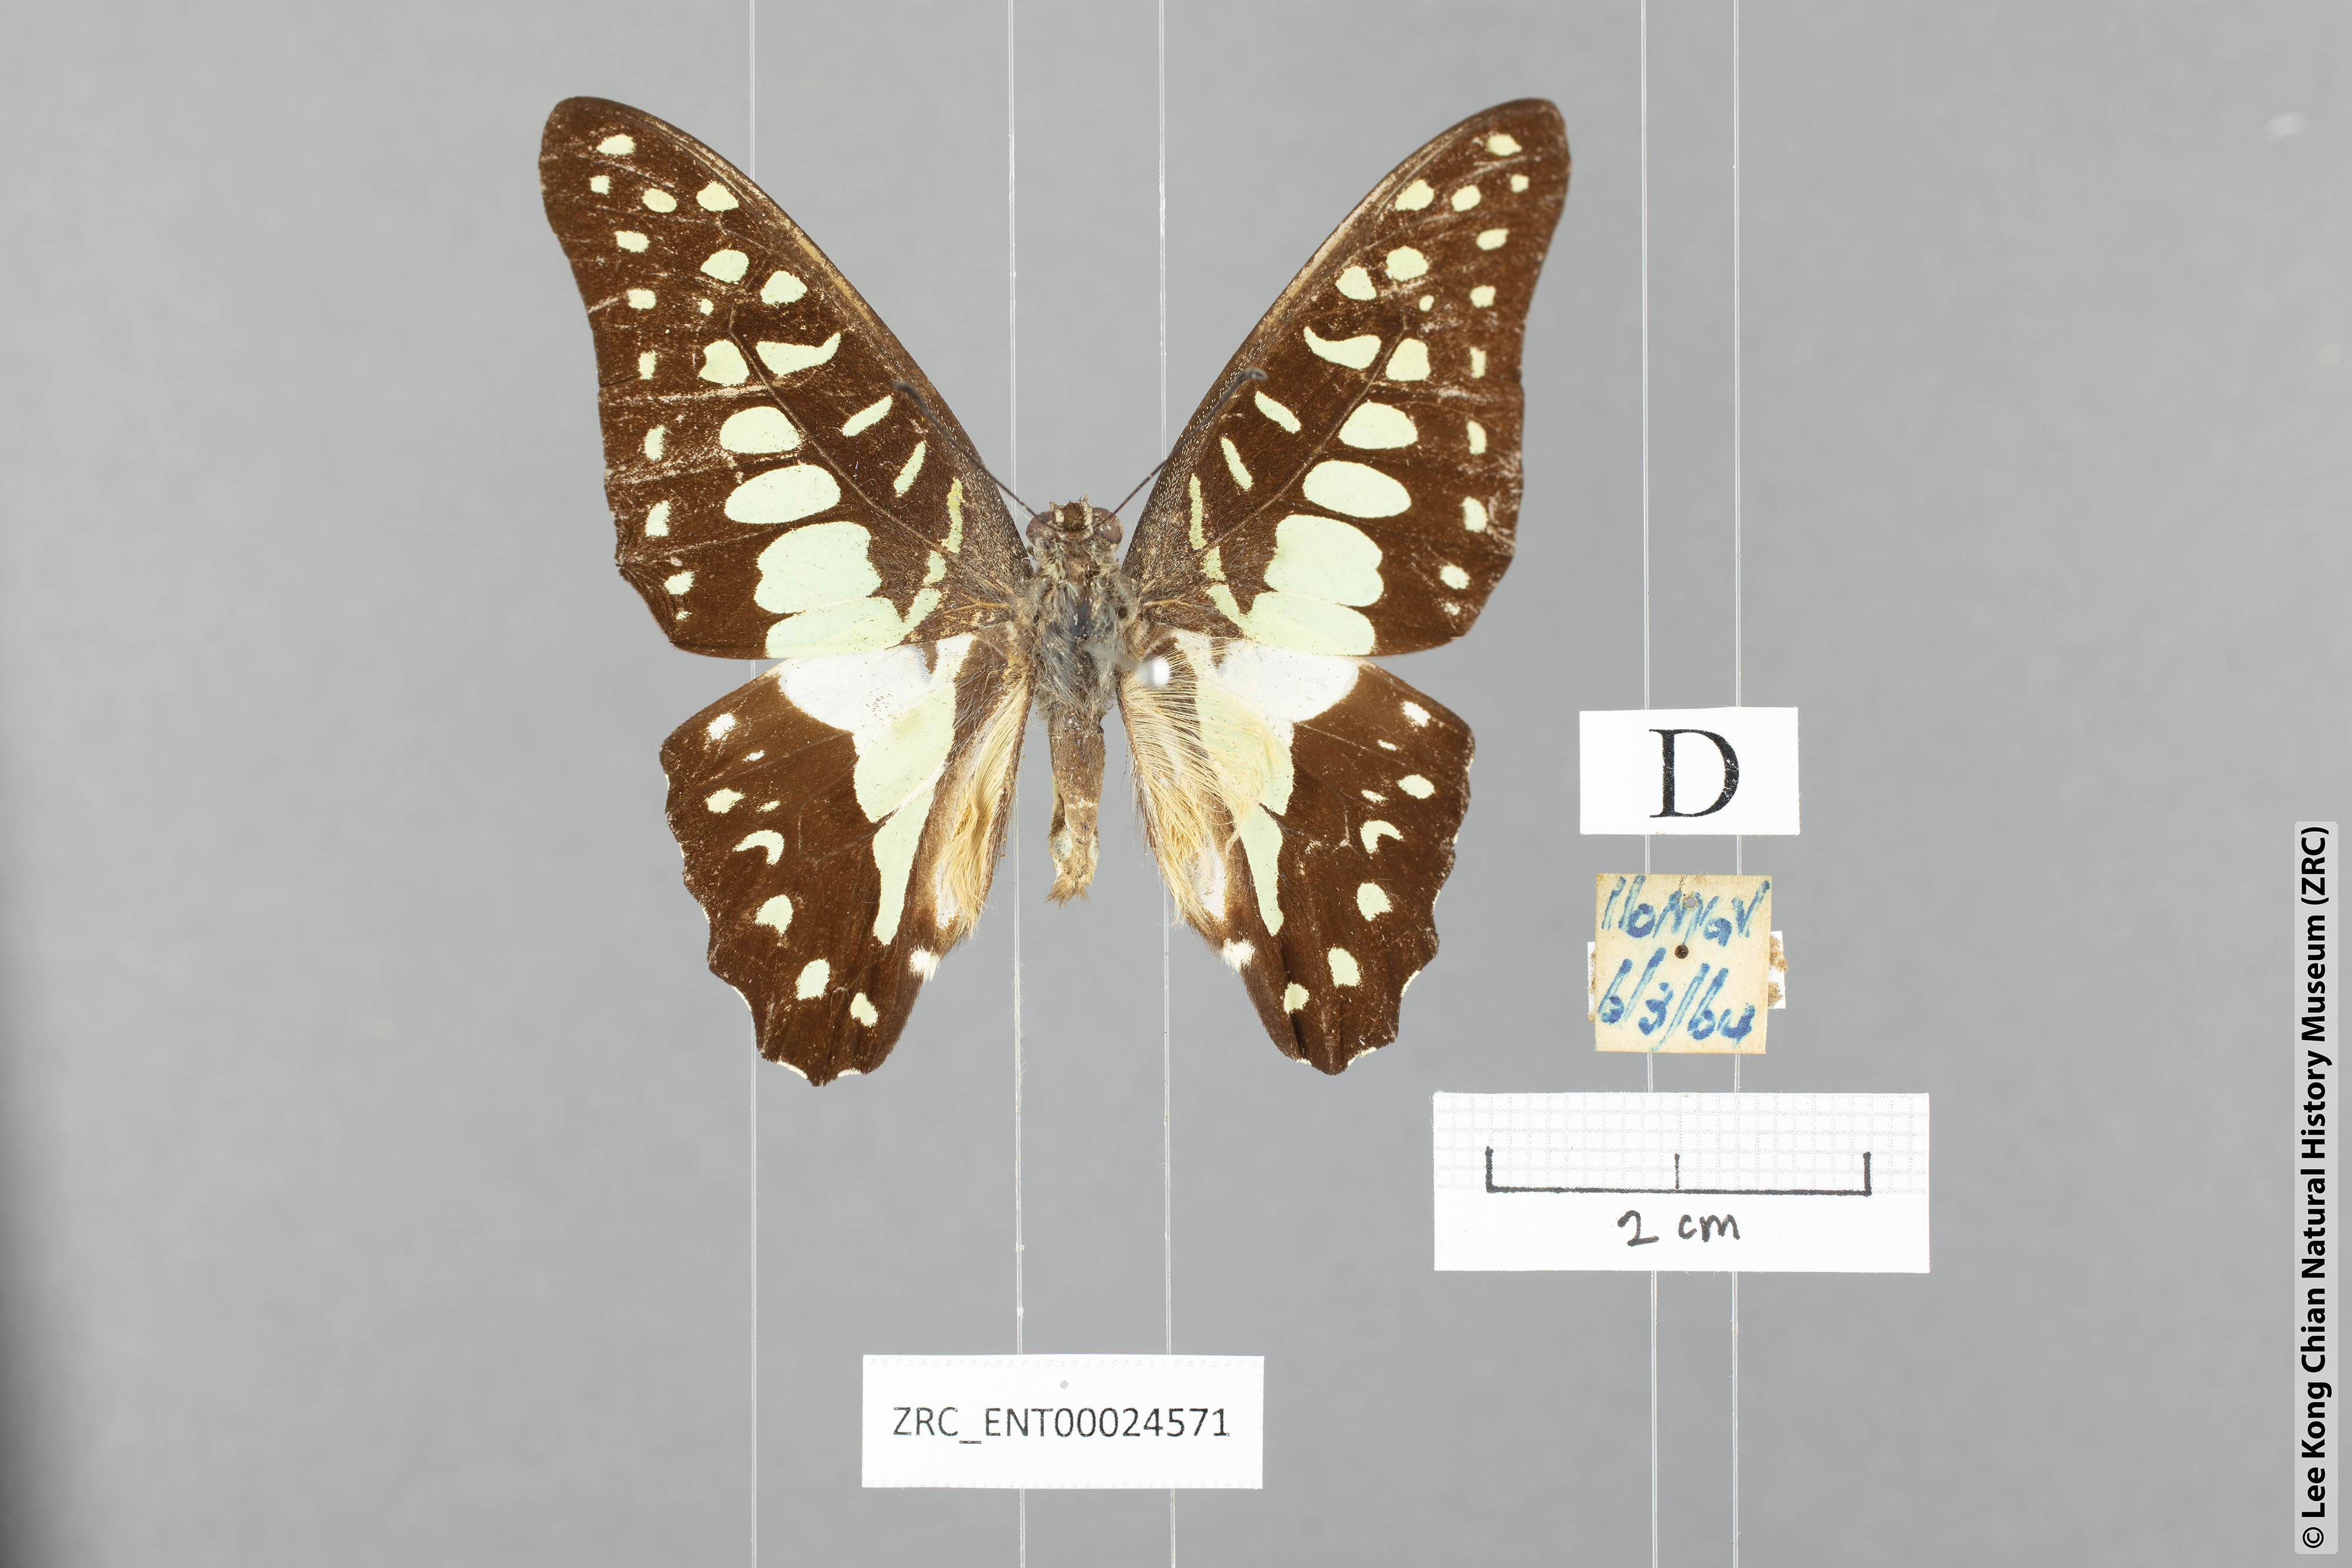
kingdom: Animalia
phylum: Arthropoda
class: Insecta
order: Lepidoptera
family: Papilionidae
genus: Graphium
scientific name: Graphium doson
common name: Common jay
